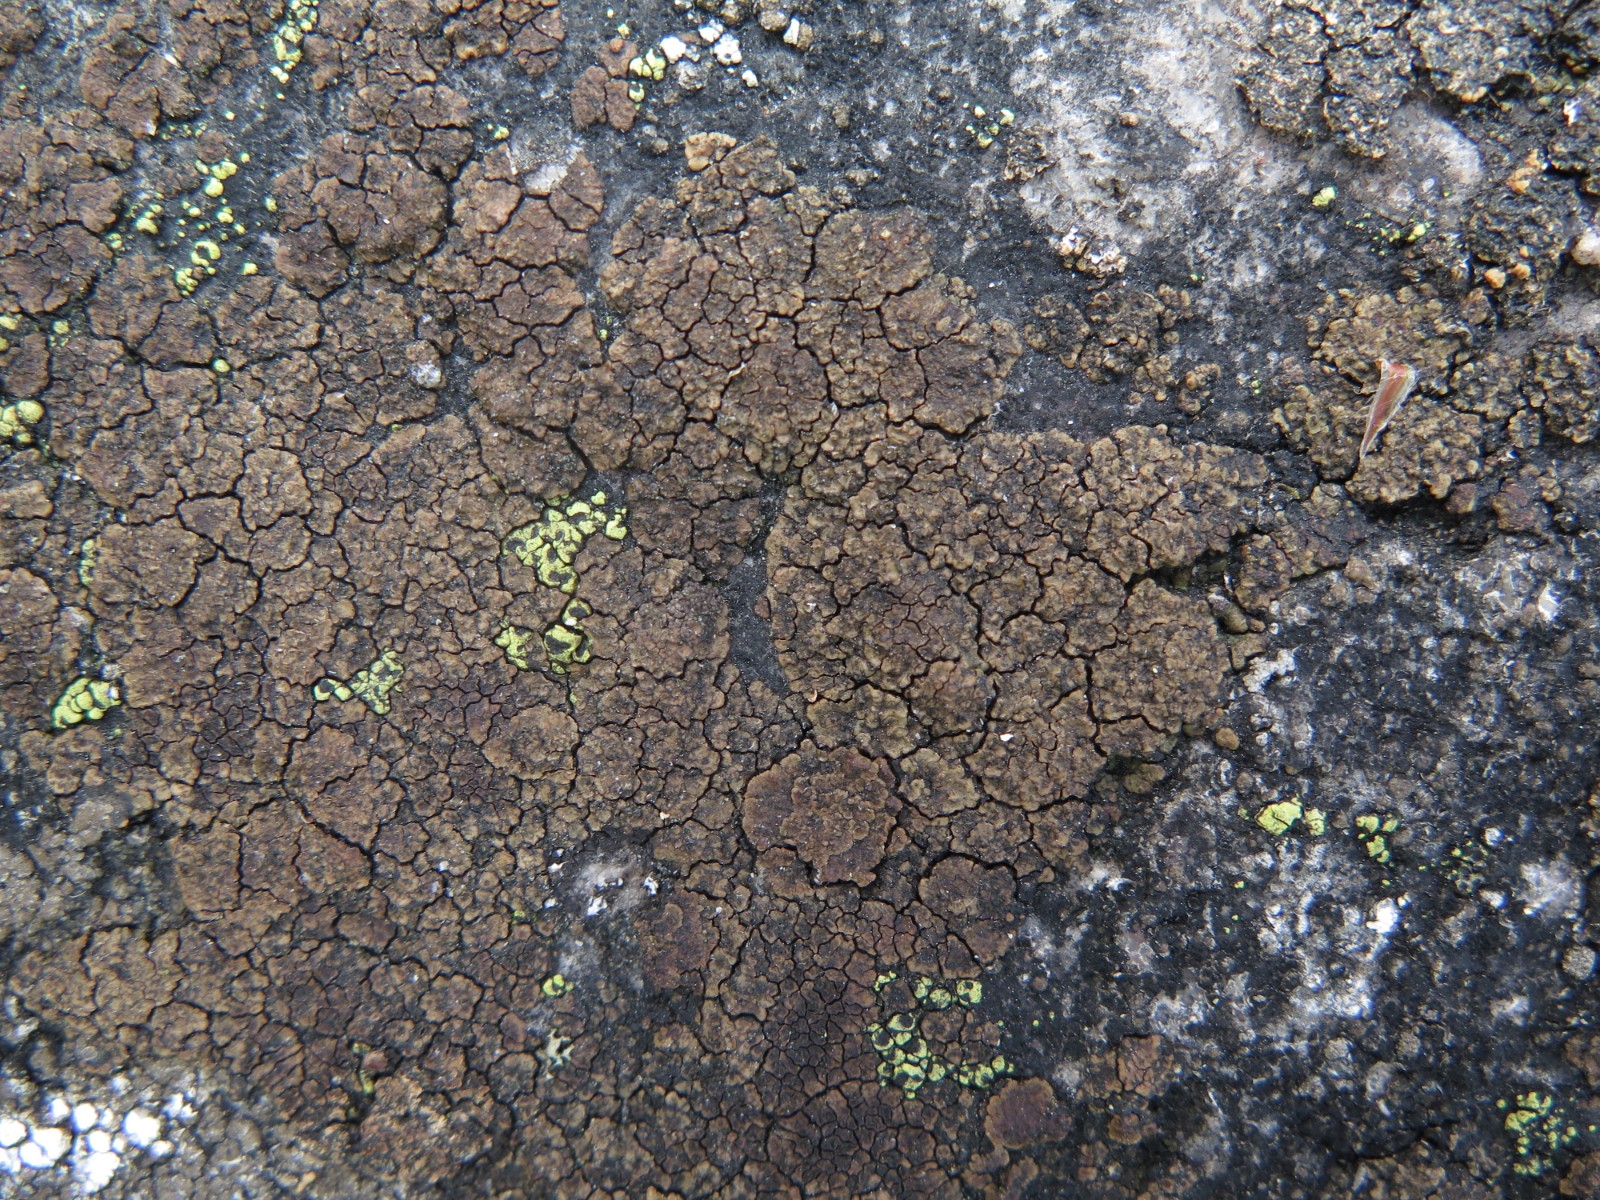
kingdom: Fungi
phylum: Ascomycota
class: Lecanoromycetes
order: Acarosporales
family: Acarosporaceae
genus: Acarospora
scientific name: Acarospora fuscata
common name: brun småsporelav
